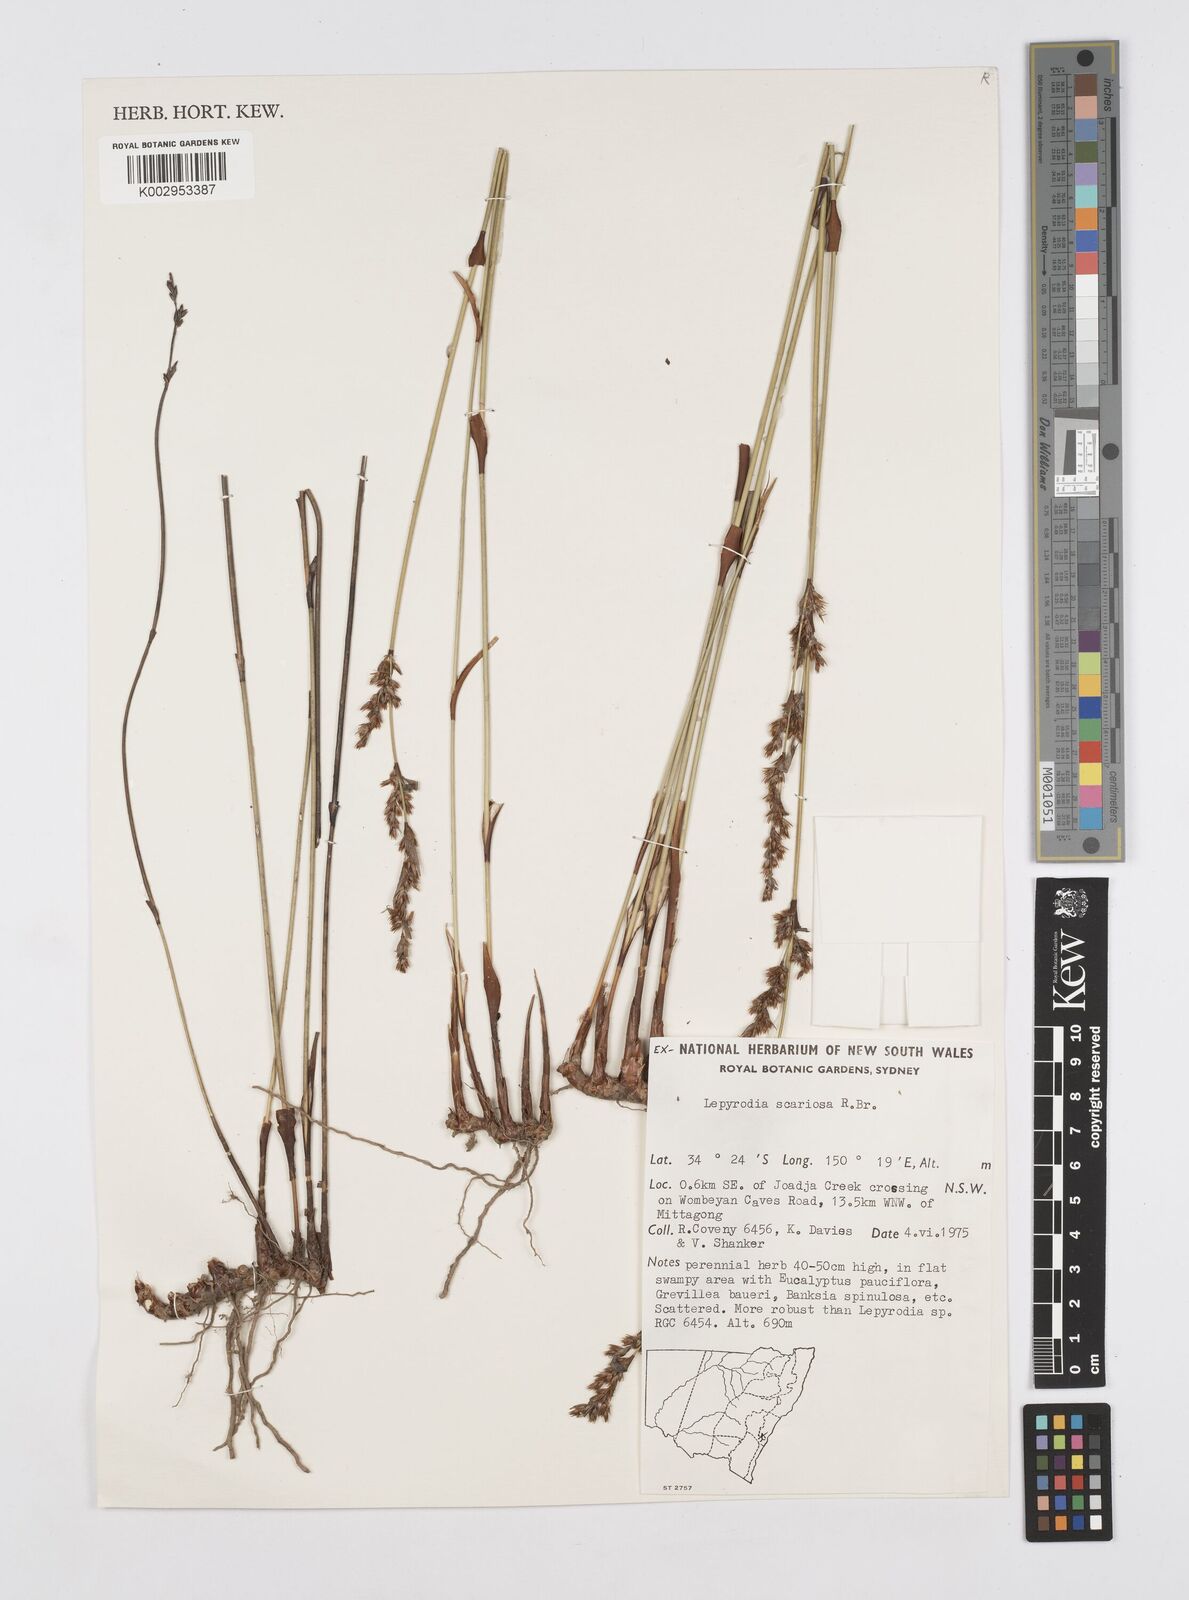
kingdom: Plantae
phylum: Tracheophyta
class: Liliopsida
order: Poales
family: Restionaceae
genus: Lepyrodia
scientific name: Lepyrodia scariosa
